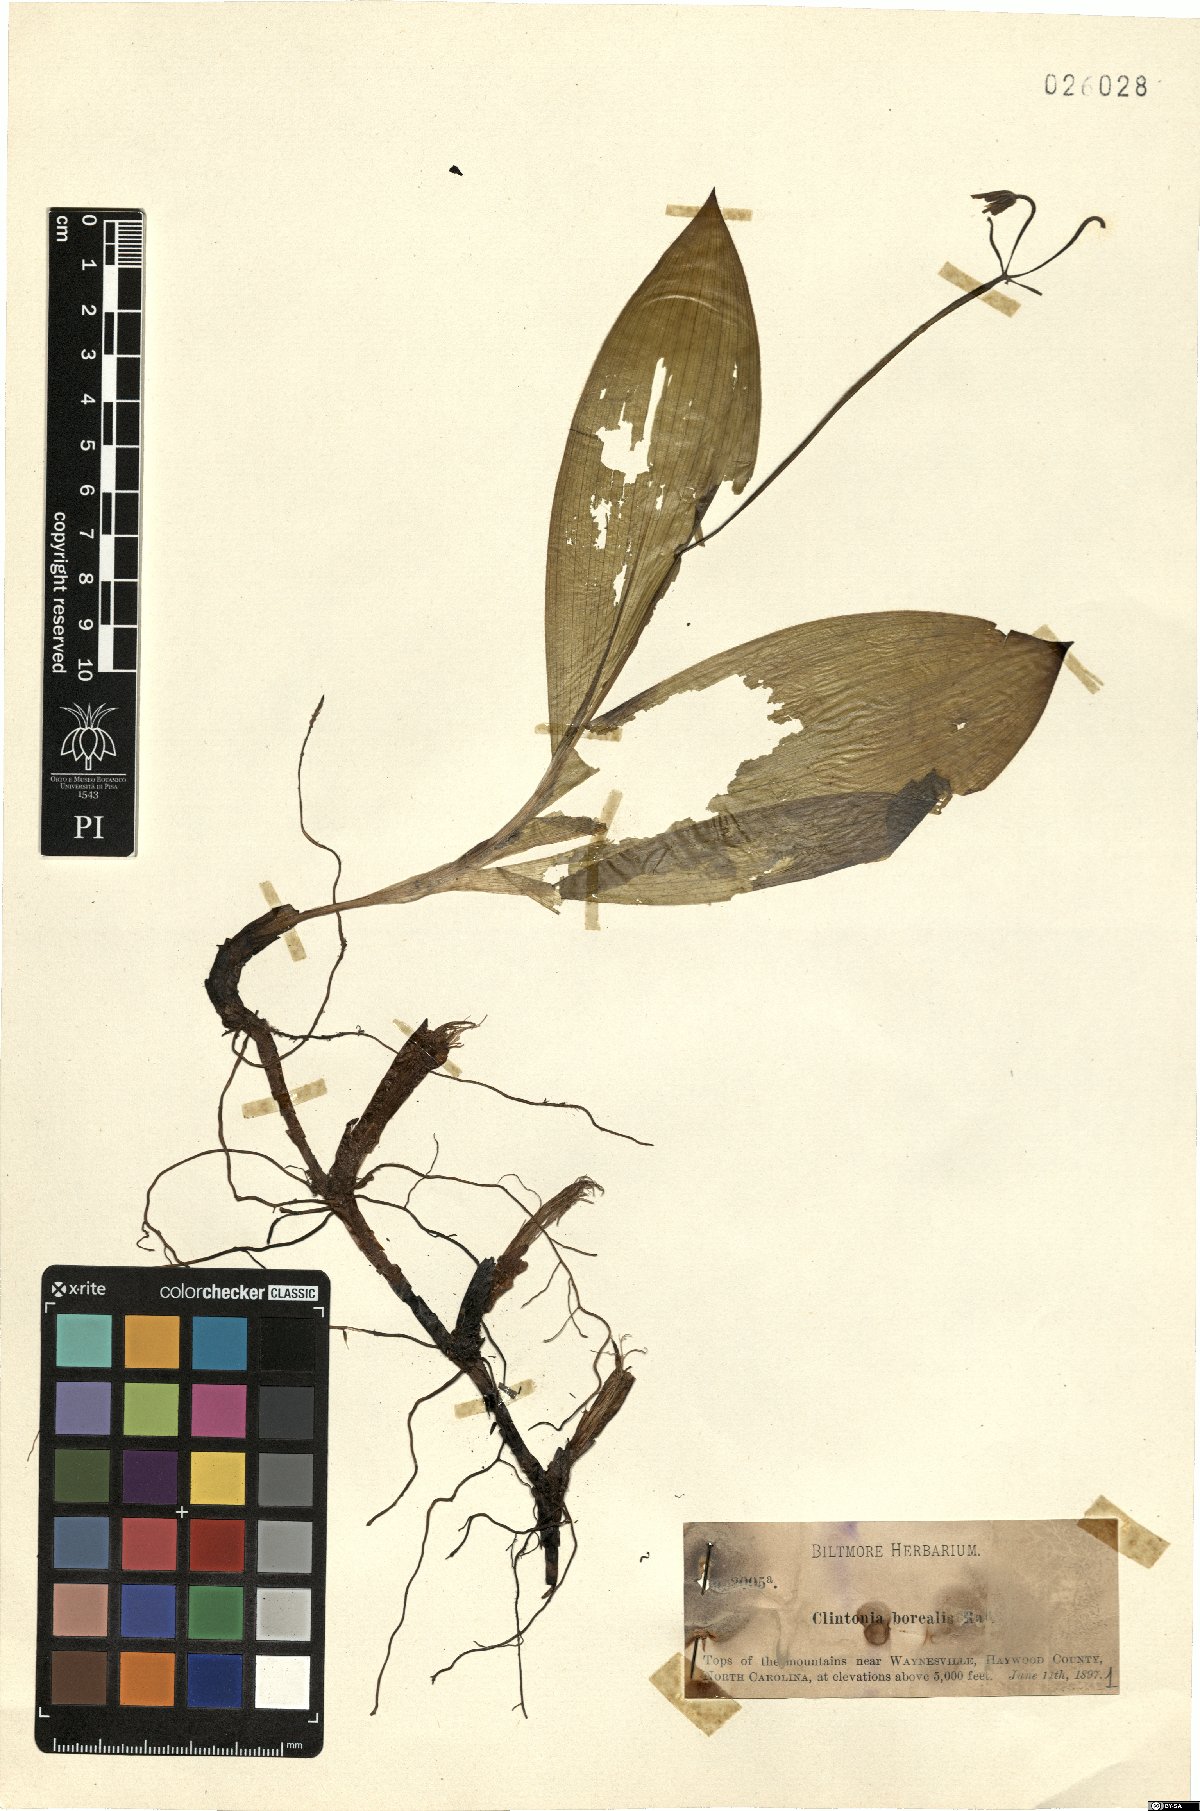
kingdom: Plantae
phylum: Tracheophyta
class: Liliopsida
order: Liliales
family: Liliaceae
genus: Clintonia
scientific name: Clintonia borealis
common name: Yellow clintonia
